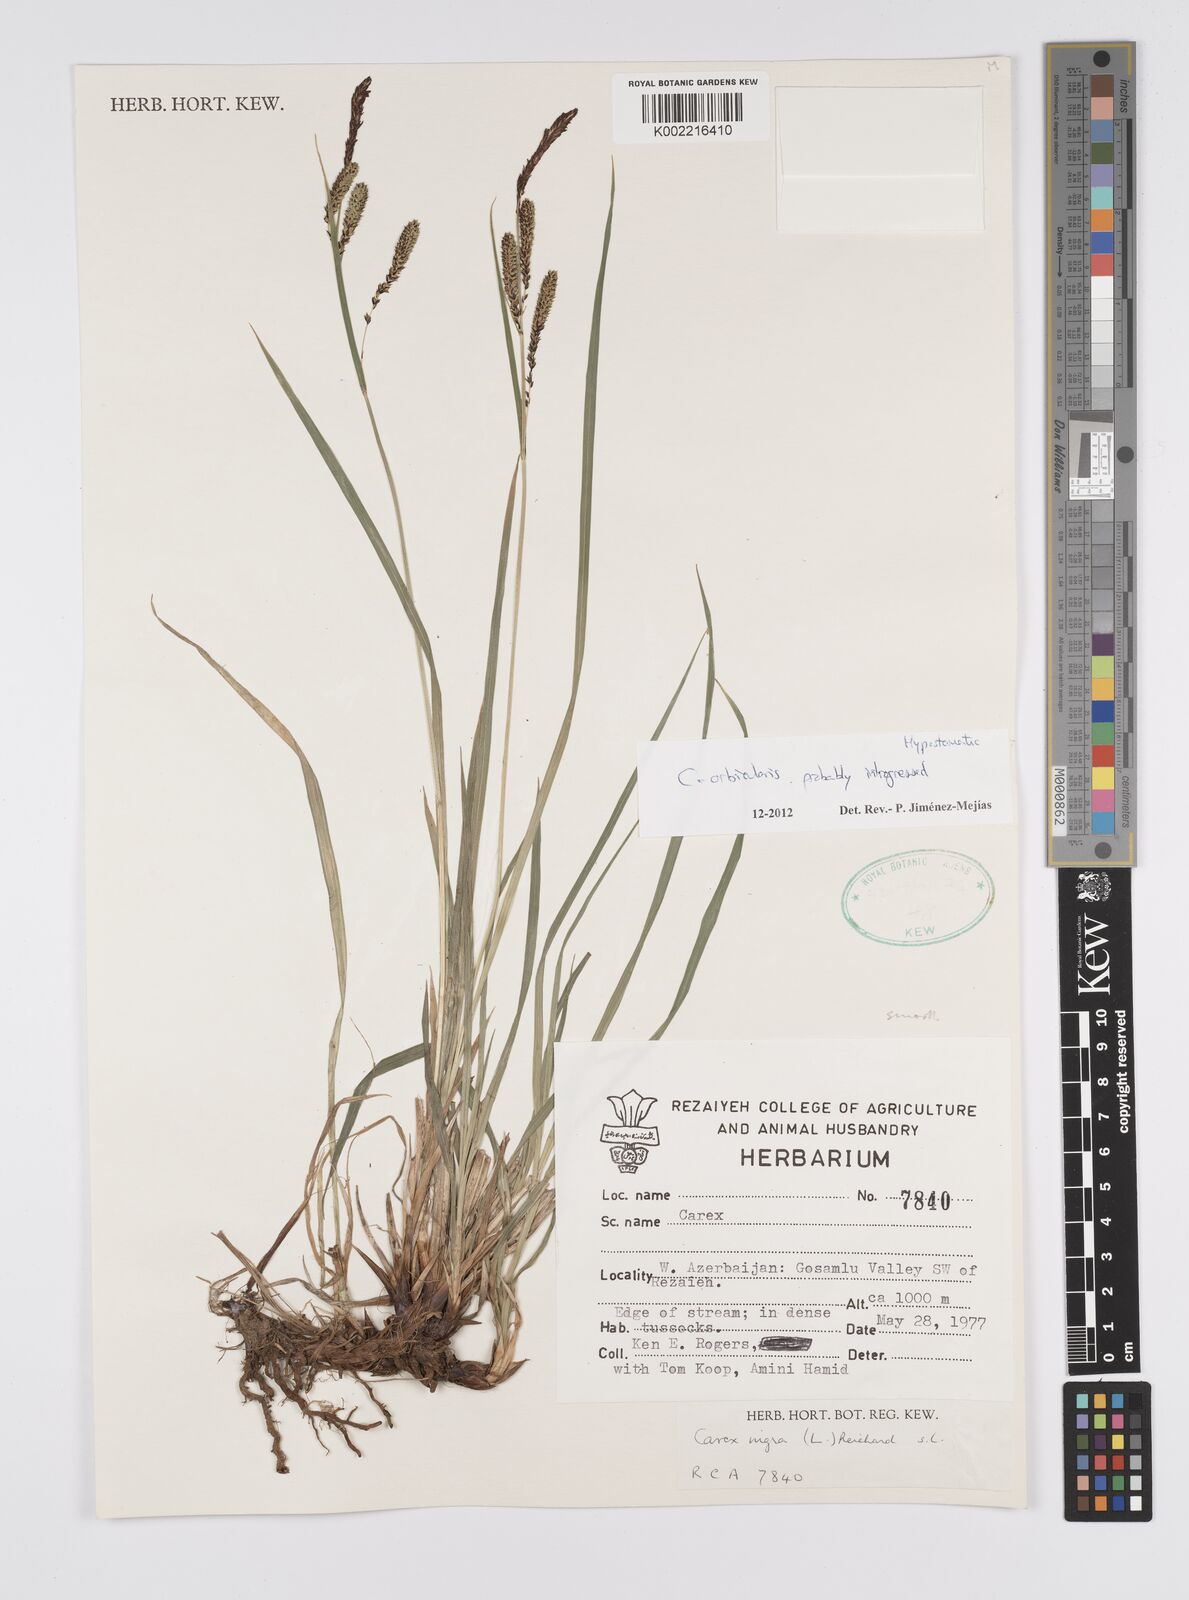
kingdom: Plantae
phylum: Tracheophyta
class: Liliopsida
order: Poales
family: Cyperaceae
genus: Carex
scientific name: Carex orbicularis
